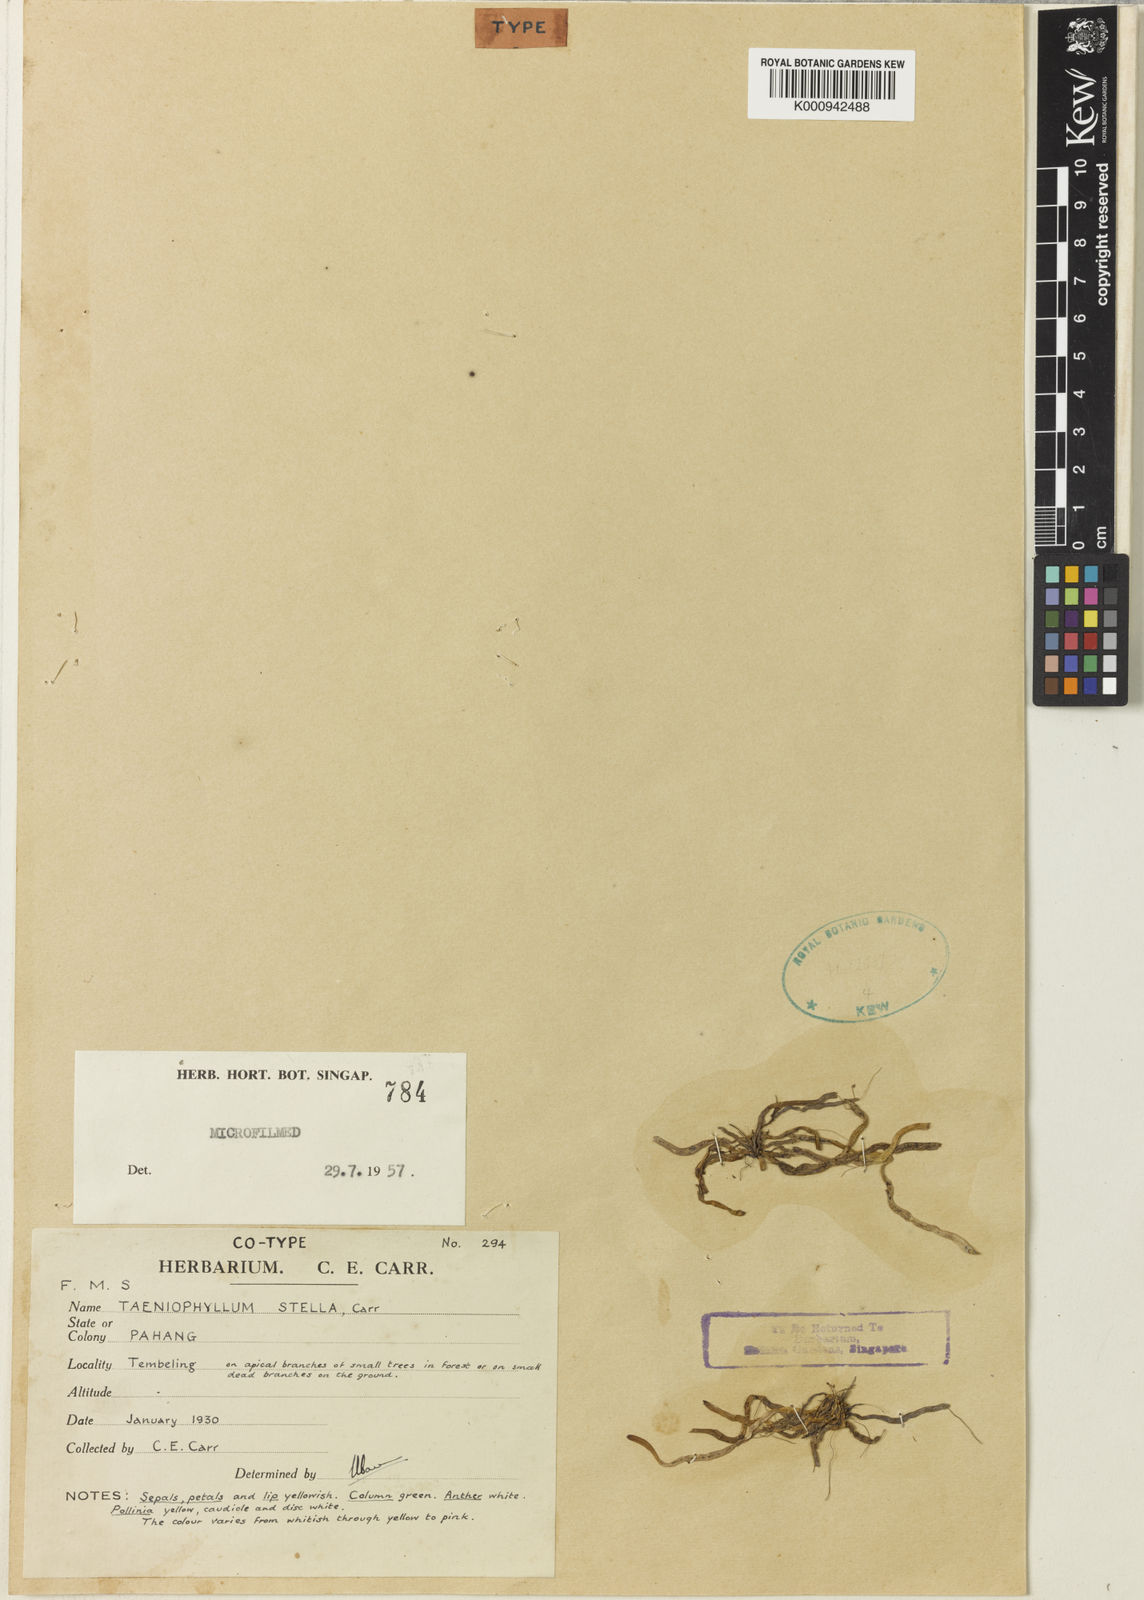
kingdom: Plantae
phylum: Tracheophyta
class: Liliopsida
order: Asparagales
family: Orchidaceae
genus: Taeniophyllum
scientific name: Taeniophyllum stella
